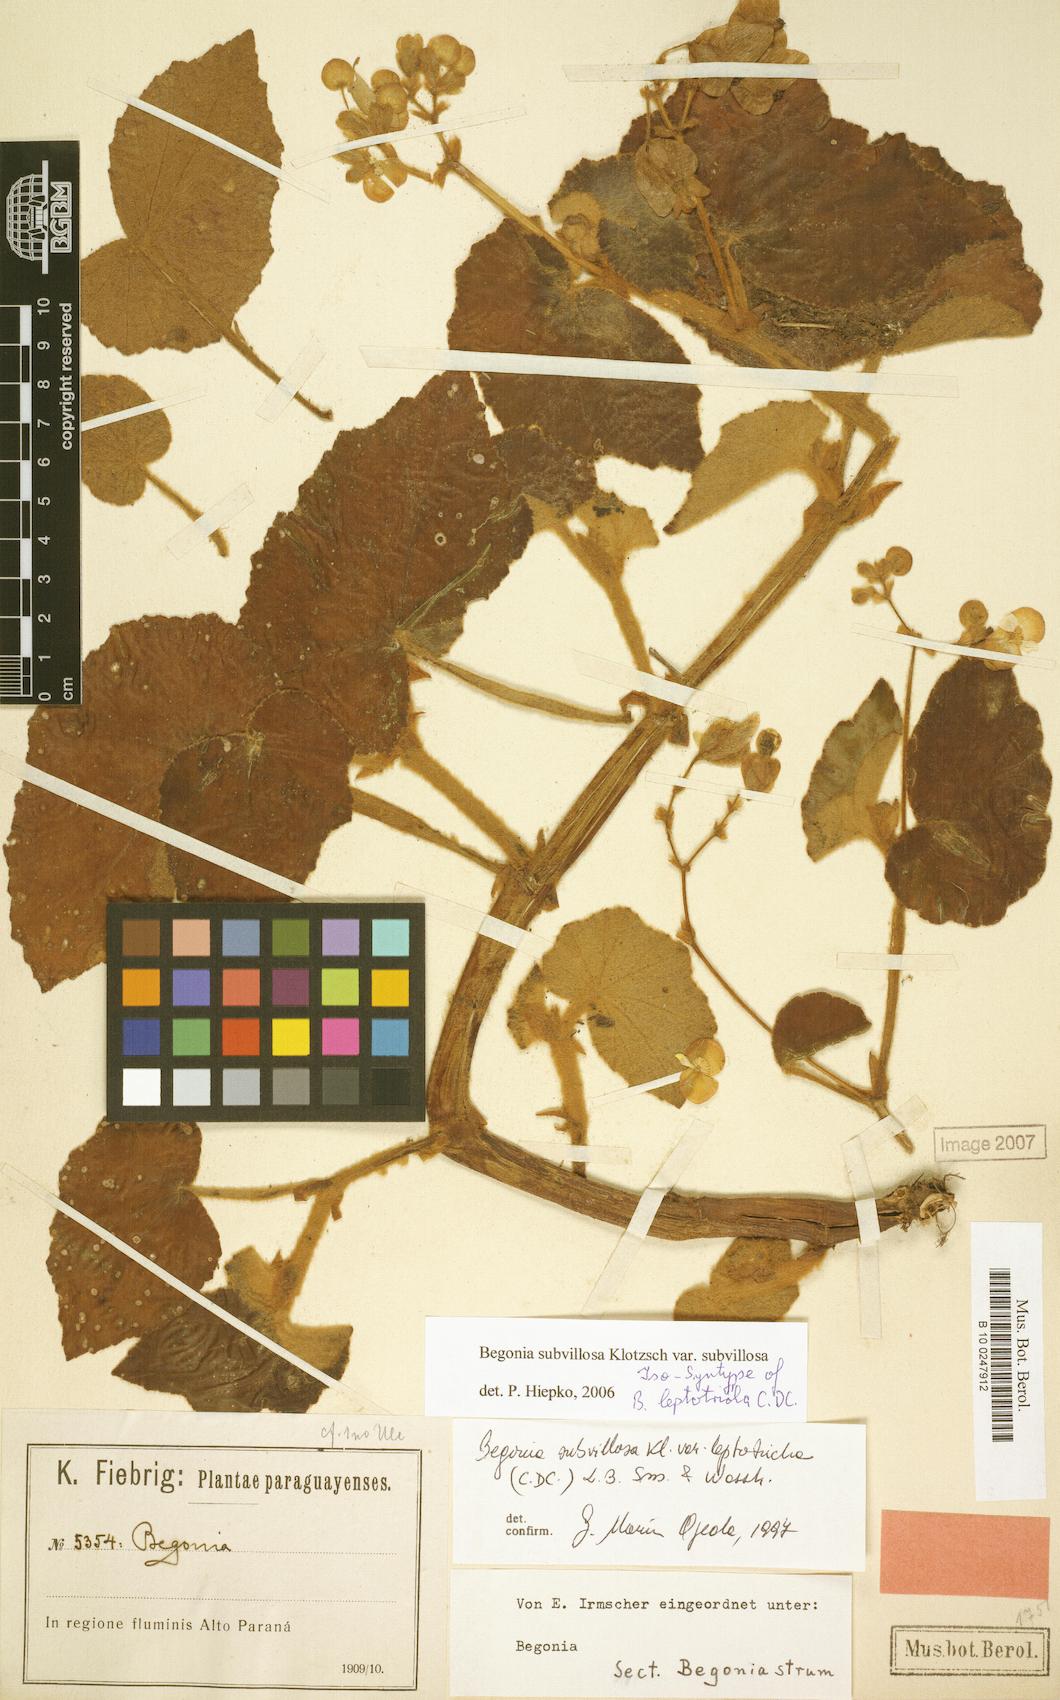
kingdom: Plantae
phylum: Tracheophyta
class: Magnoliopsida
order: Cucurbitales
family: Begoniaceae
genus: Begonia
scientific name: Begonia subvillosa
